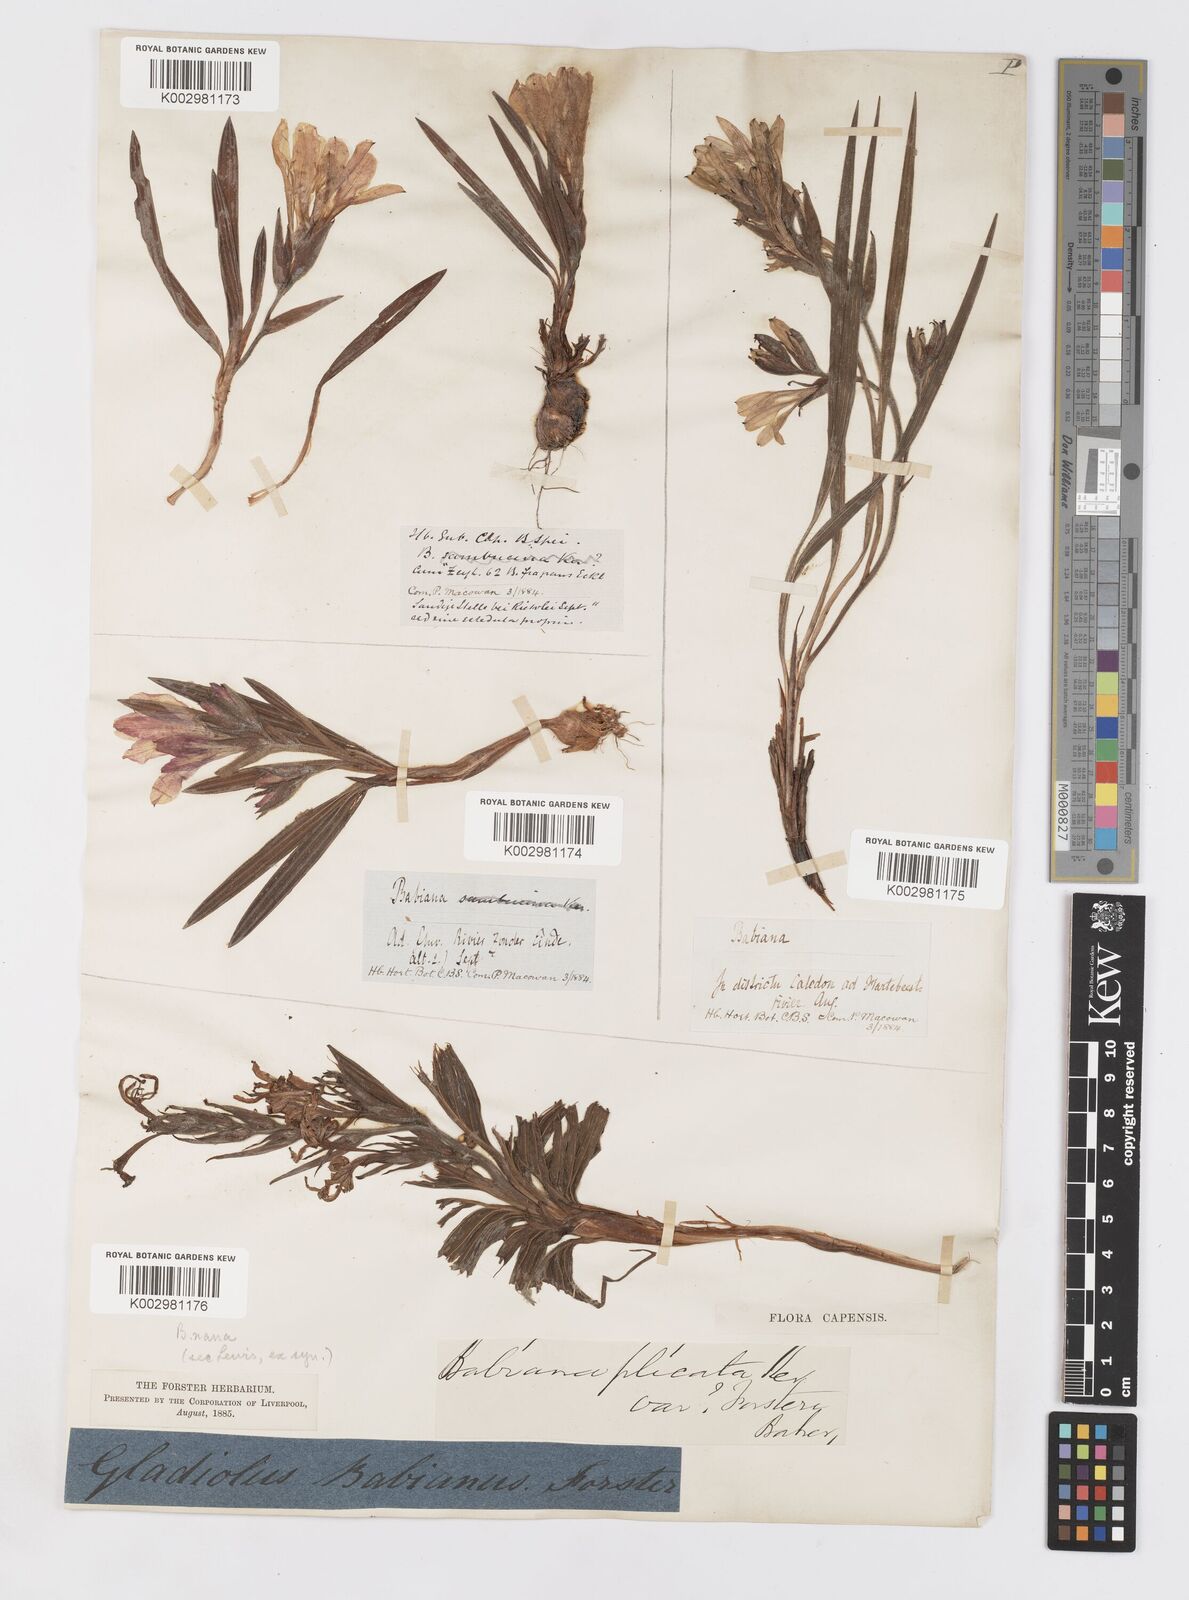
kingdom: Plantae
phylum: Tracheophyta
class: Liliopsida
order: Asparagales
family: Iridaceae
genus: Babiana
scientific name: Babiana fragrans
